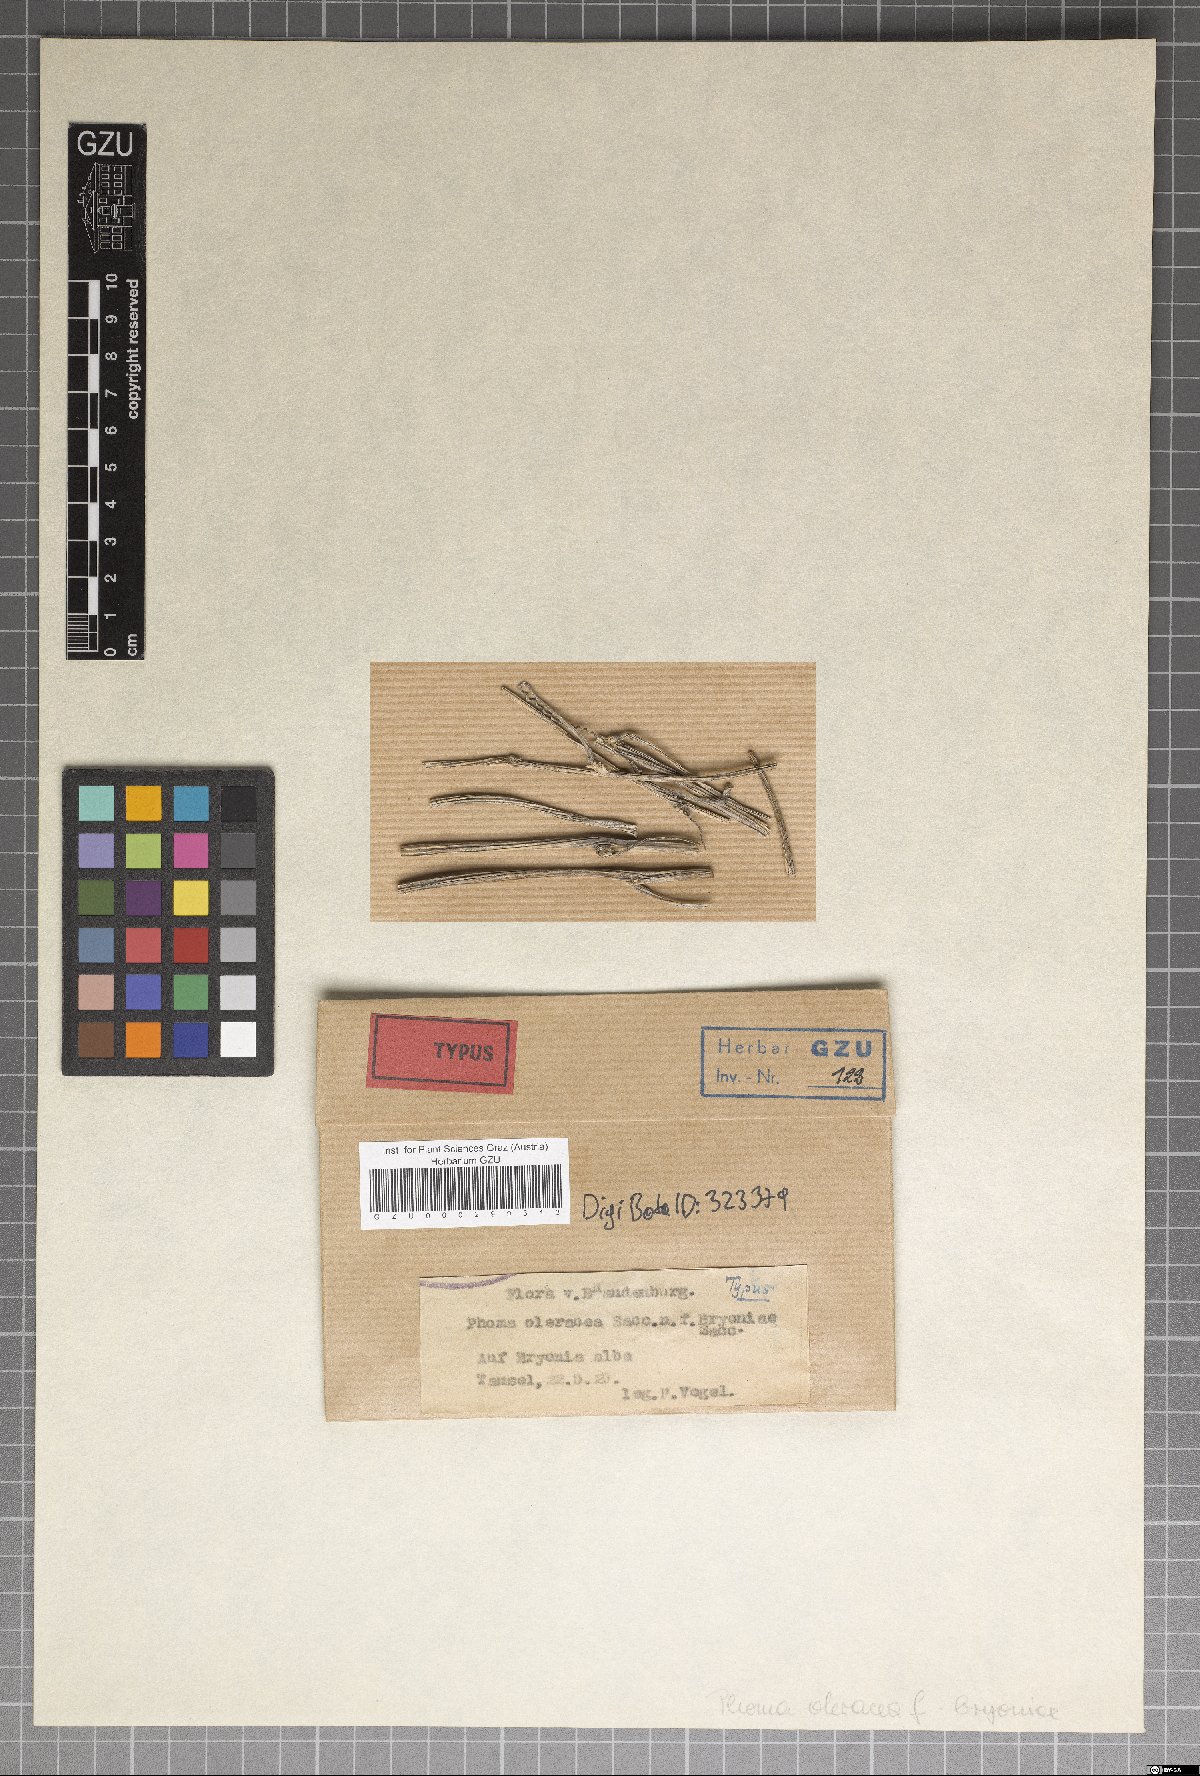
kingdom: Fungi
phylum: Ascomycota
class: Dothideomycetes
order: Pleosporales
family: Leptosphaeriaceae
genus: Leptosphaeria
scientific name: Leptosphaeria maculans
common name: Brassica blackleg disease
